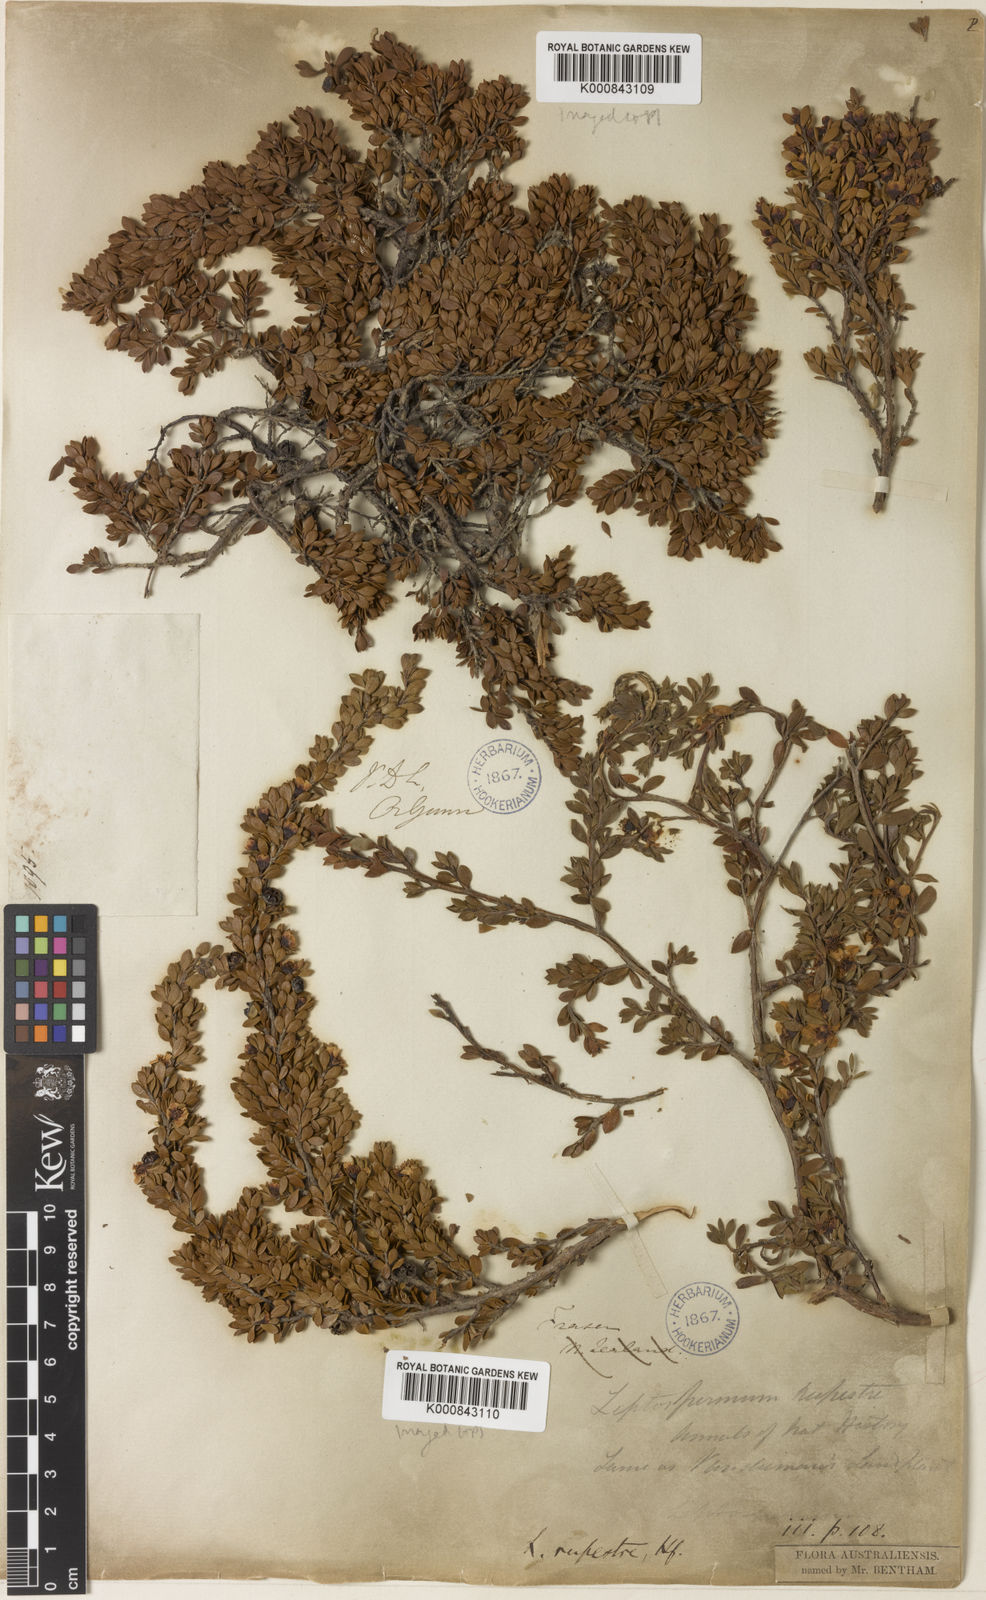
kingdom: Plantae
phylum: Tracheophyta
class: Magnoliopsida
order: Myrtales
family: Myrtaceae
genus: Leptospermum
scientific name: Leptospermum rupestre
